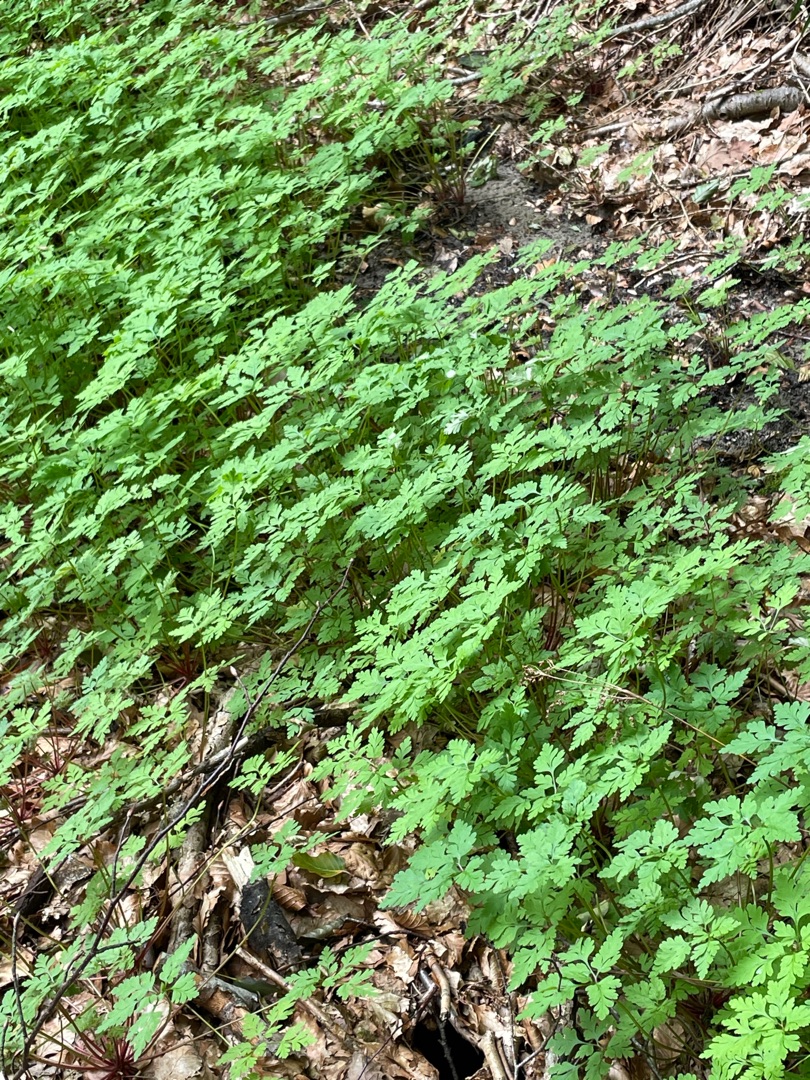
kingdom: Plantae
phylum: Tracheophyta
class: Magnoliopsida
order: Geraniales
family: Geraniaceae
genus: Geranium
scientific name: Geranium robertianum
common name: Stinkende storkenæb
